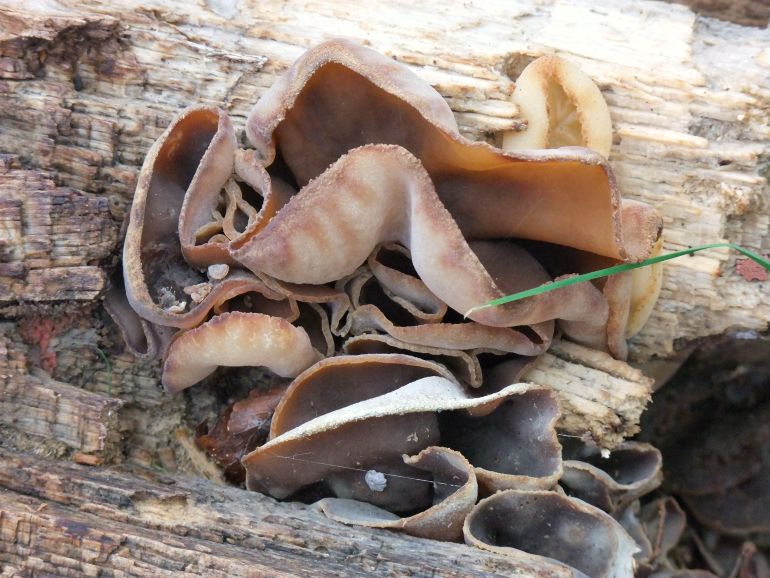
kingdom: Fungi
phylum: Ascomycota
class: Pezizomycetes
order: Pezizales
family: Pezizaceae
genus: Peziza
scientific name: Peziza varia
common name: Ved-bægersvamp
